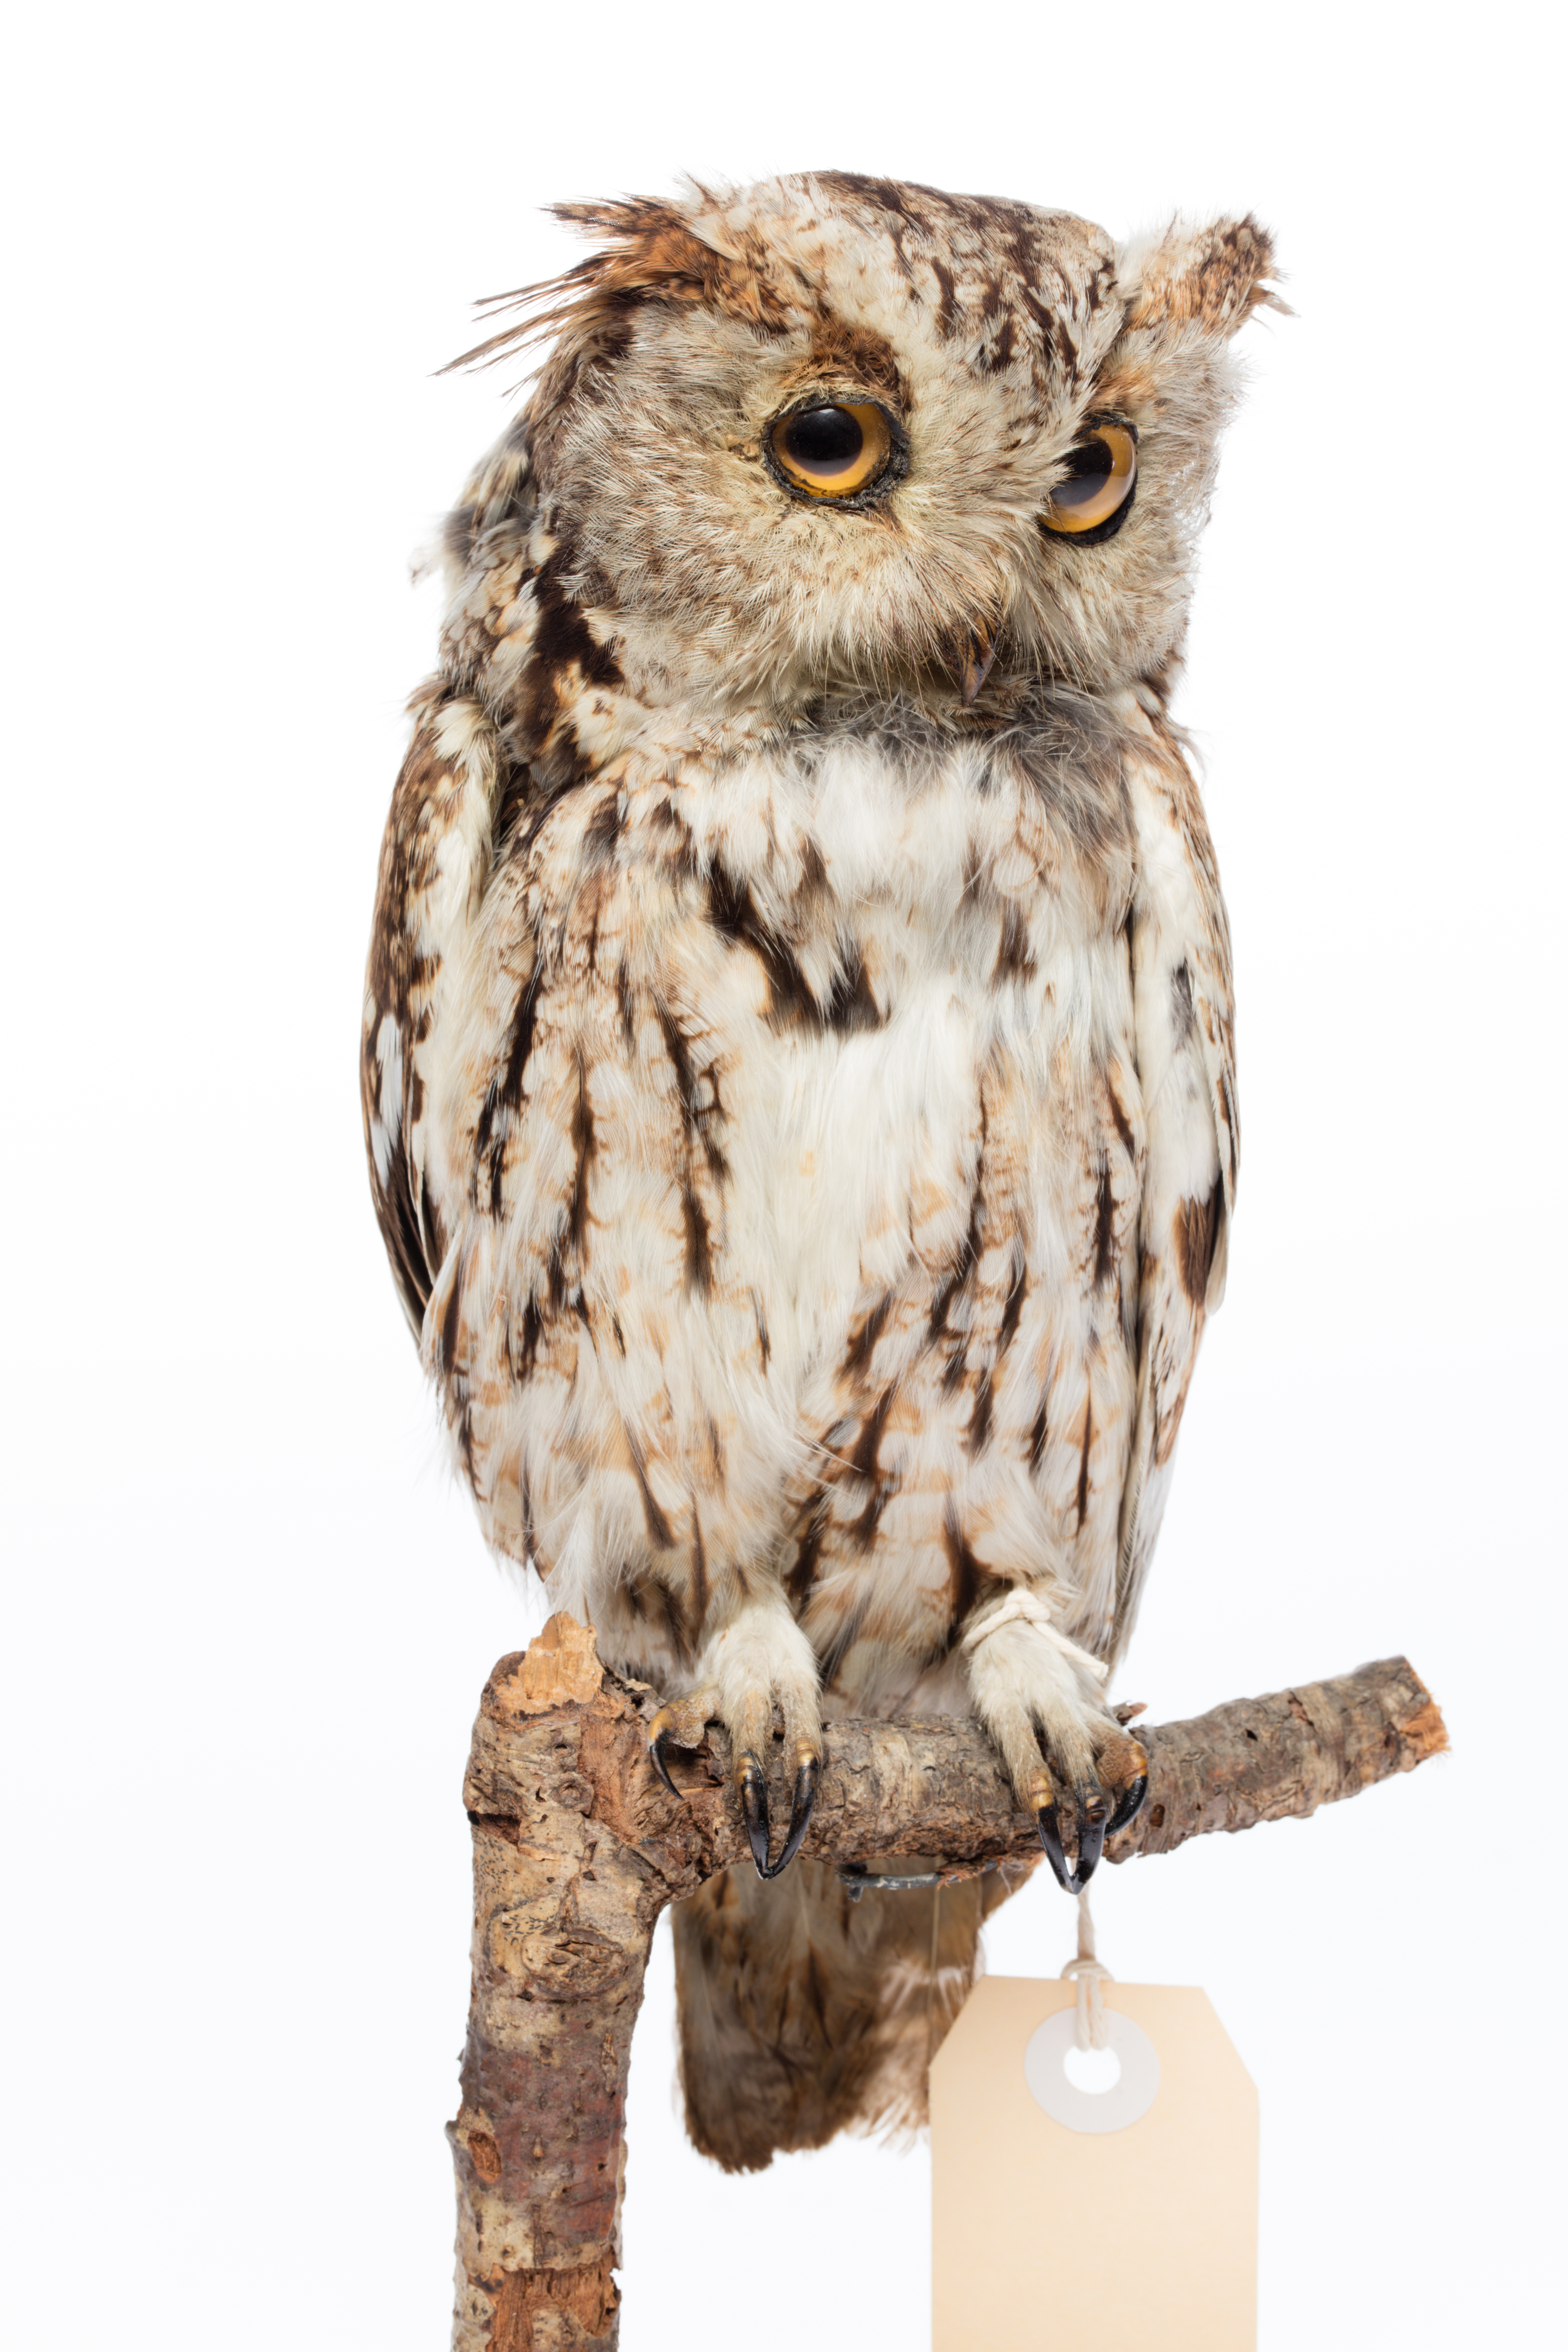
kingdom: Animalia
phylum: Chordata
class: Aves
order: Strigiformes
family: Strigidae
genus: Megascops
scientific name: Megascops asio
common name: Eastern screech-owl
